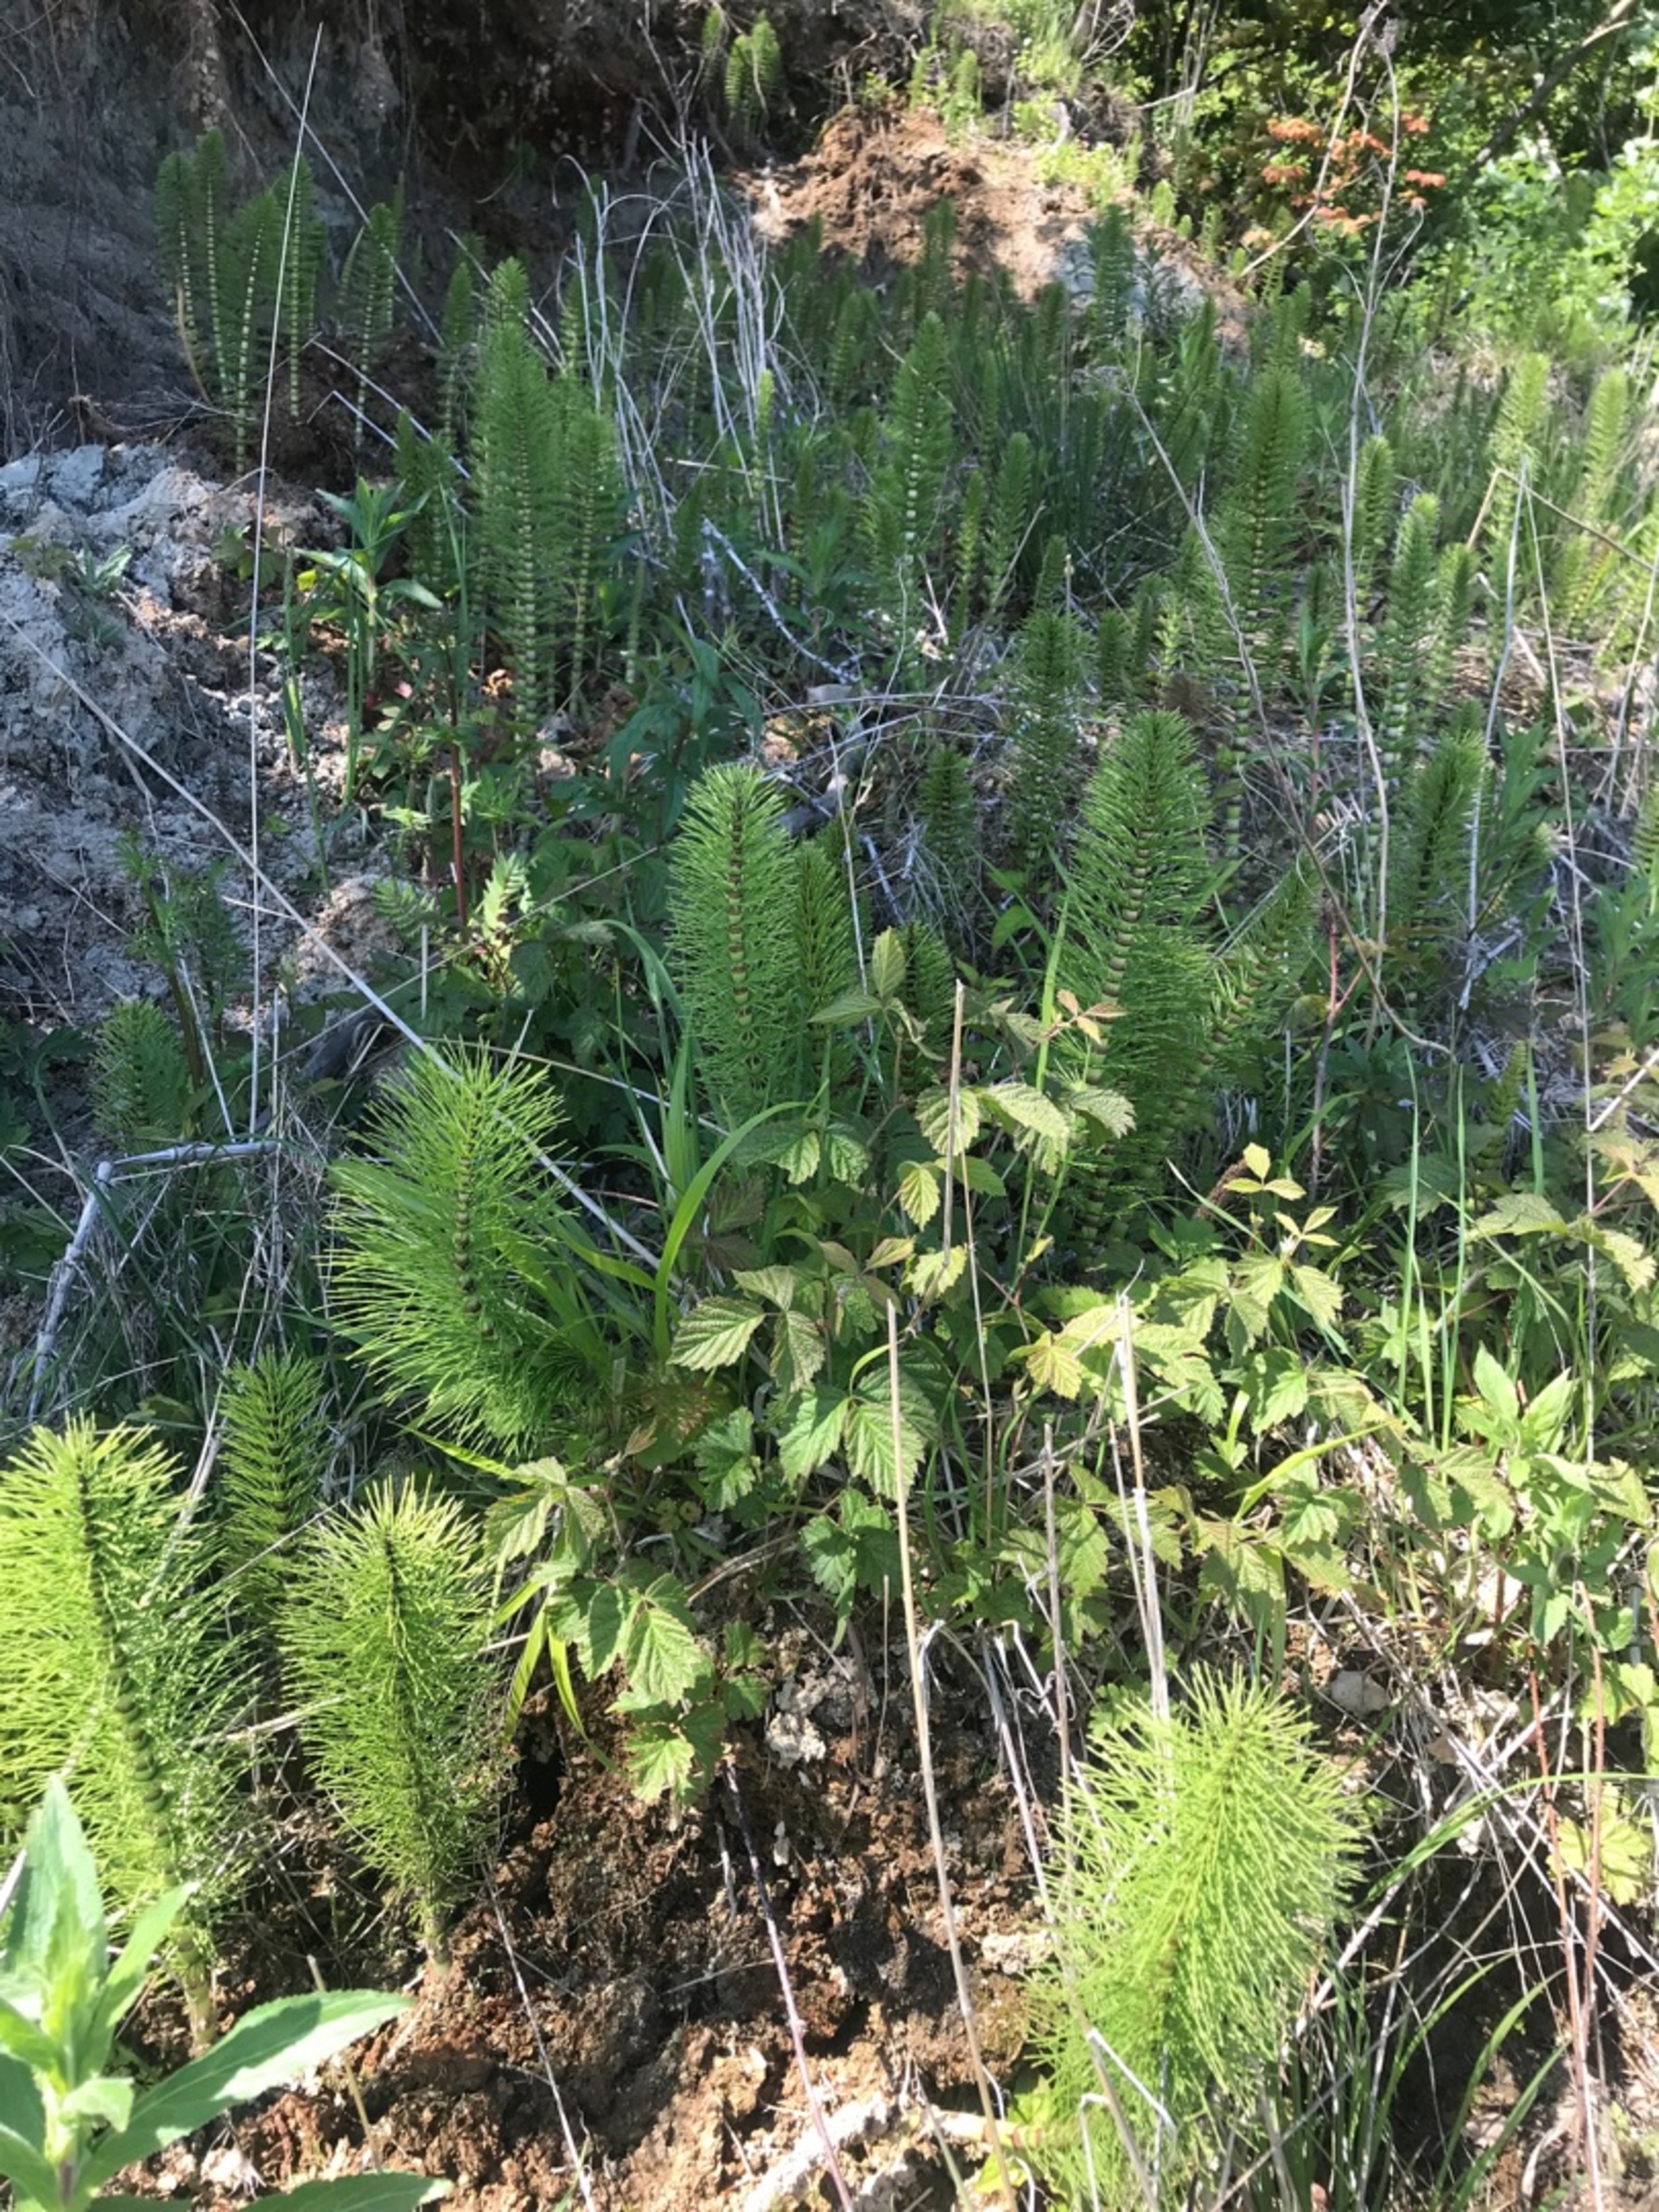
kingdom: Plantae
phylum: Tracheophyta
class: Polypodiopsida
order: Equisetales
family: Equisetaceae
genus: Equisetum
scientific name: Equisetum telmateia
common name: Elfenbens-padderok
